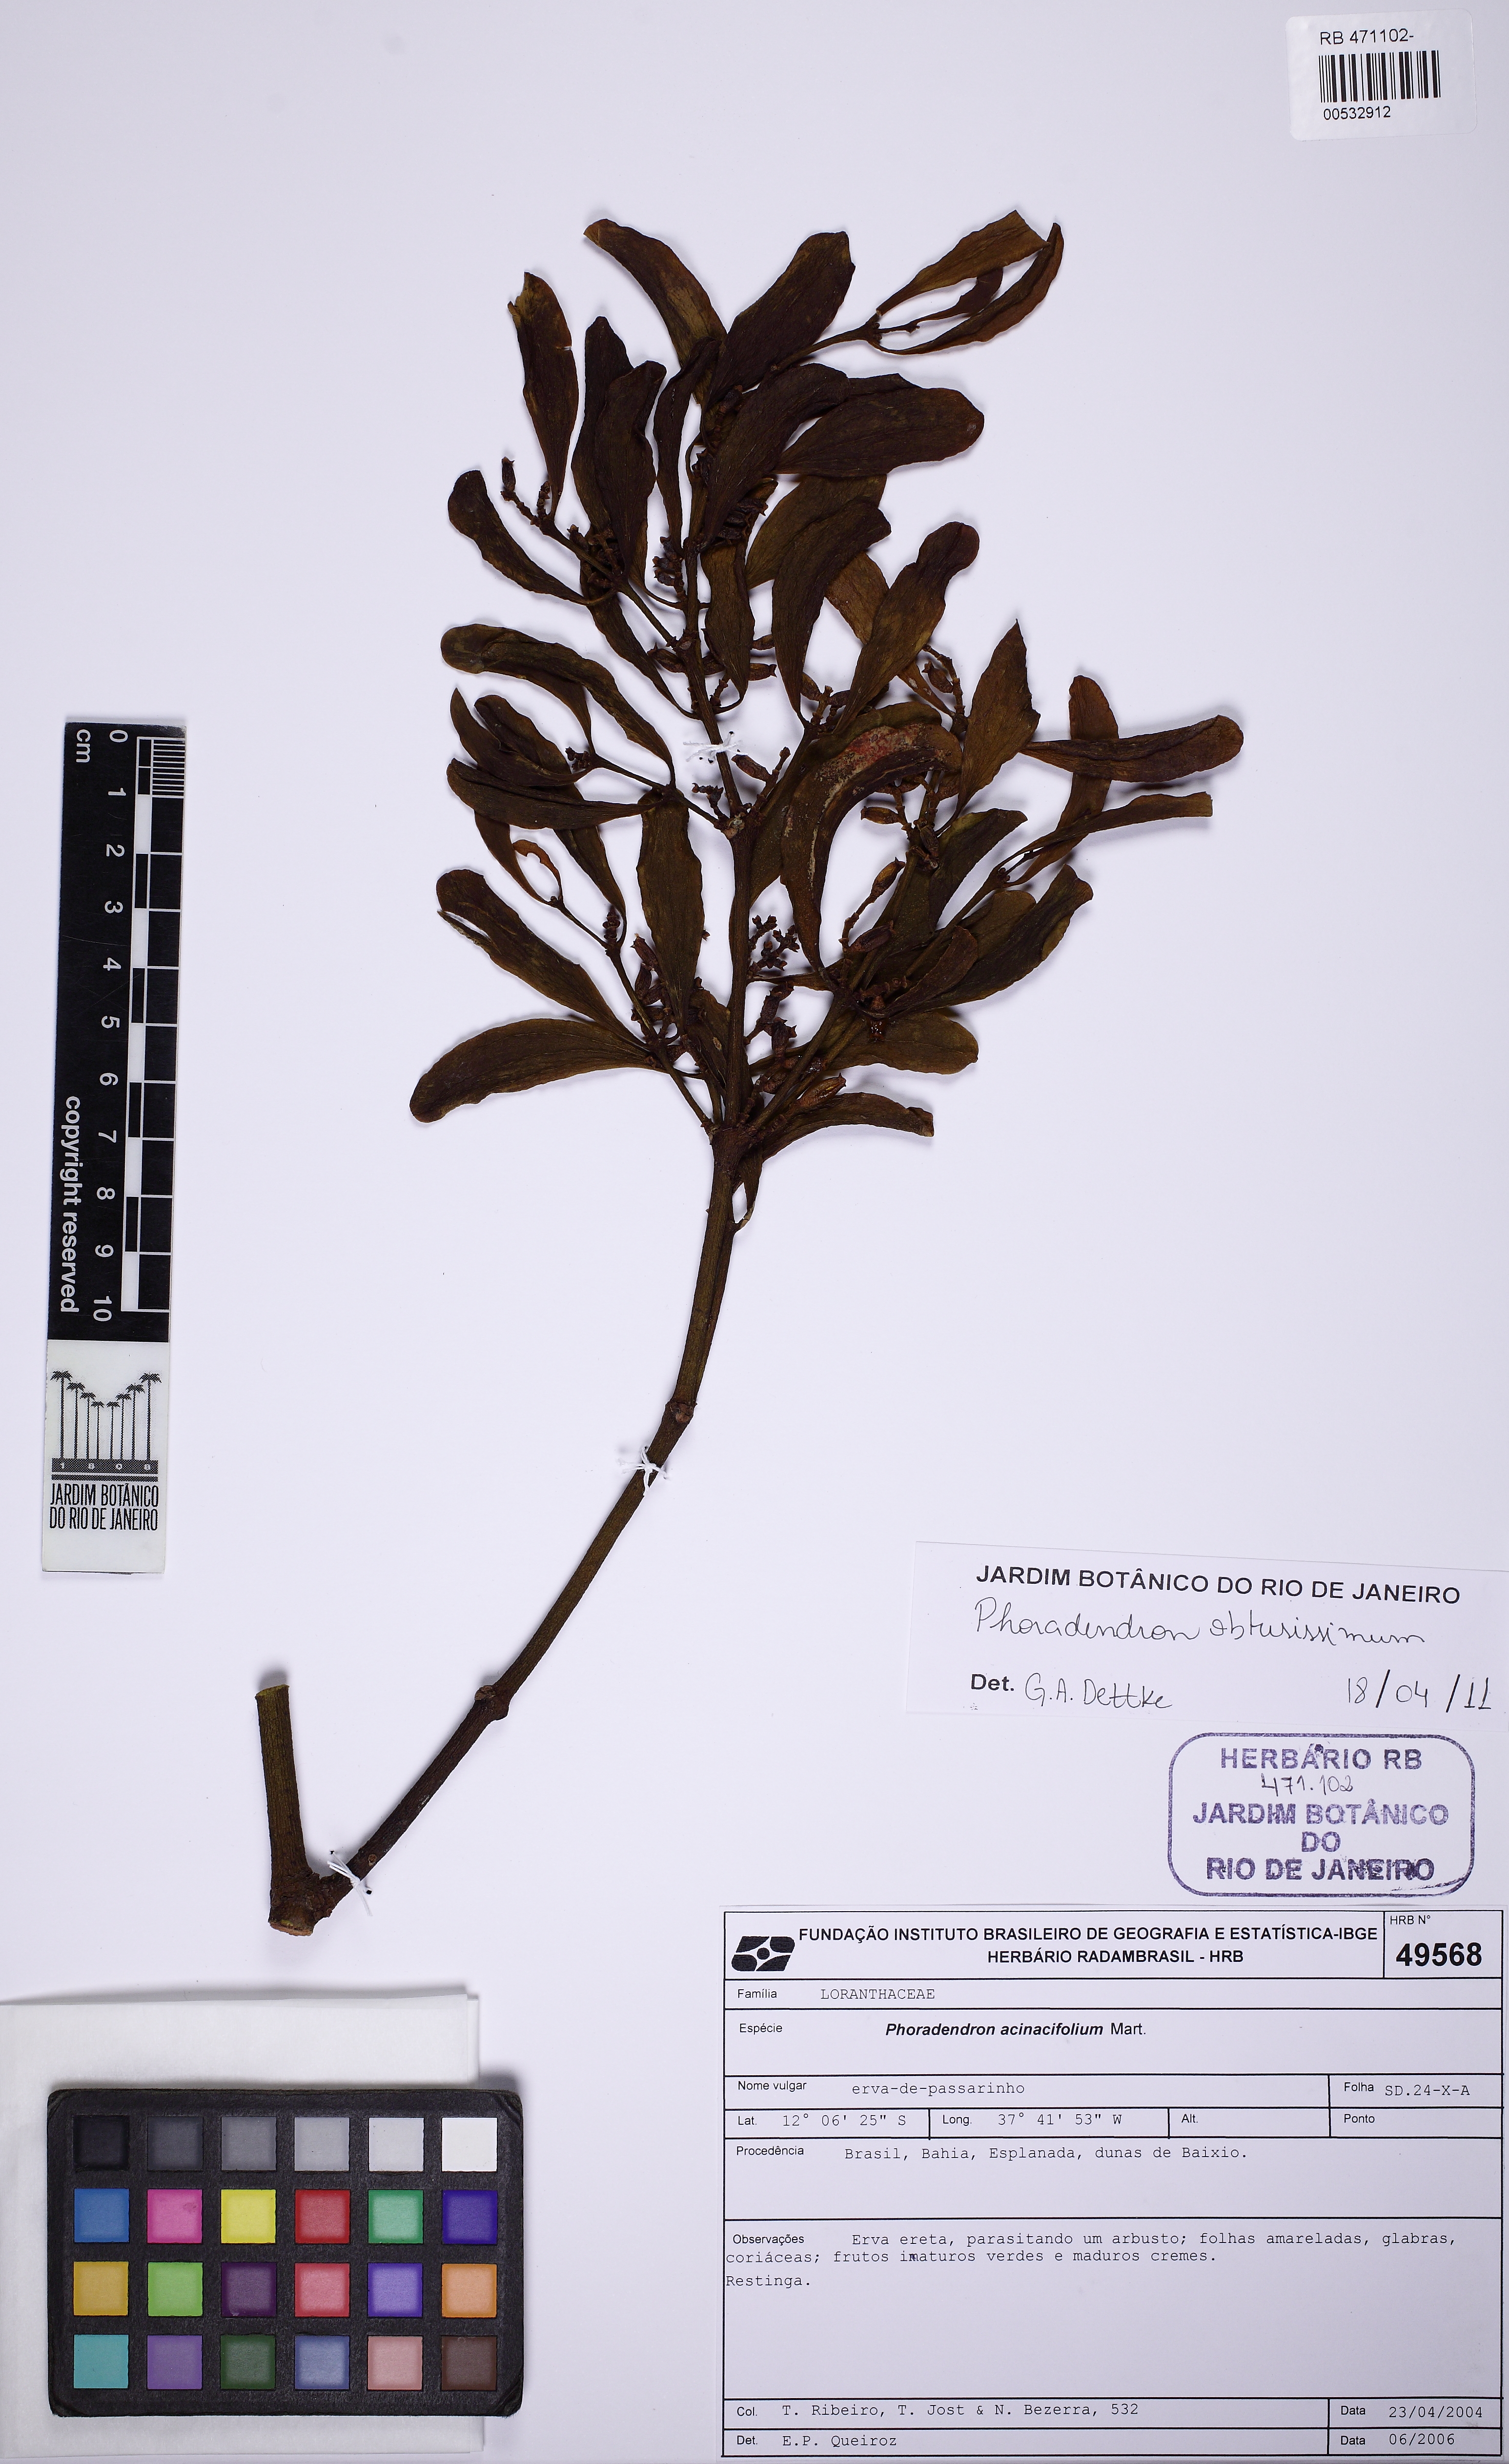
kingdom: Plantae
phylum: Tracheophyta
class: Magnoliopsida
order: Santalales
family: Viscaceae
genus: Phoradendron
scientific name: Phoradendron obtusissimum
